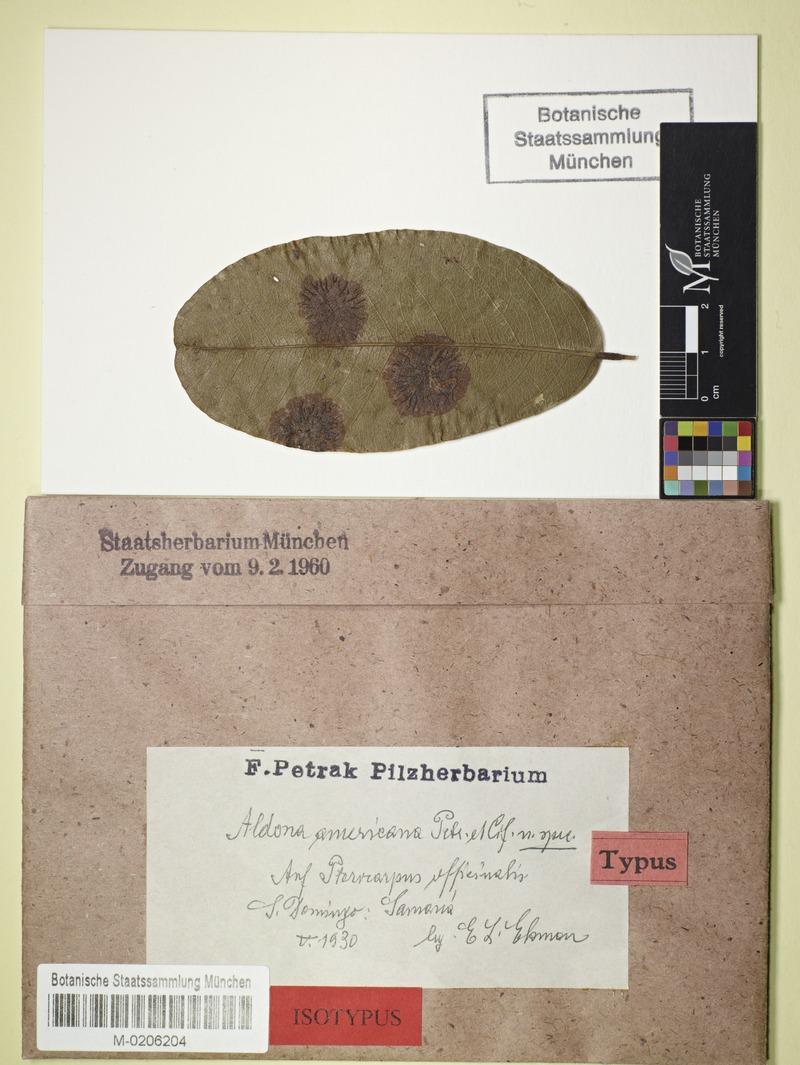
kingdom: Fungi
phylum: Ascomycota
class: Dothideomycetes
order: Asterinales
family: Parmulariaceae
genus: Aldona
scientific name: Aldona americana
